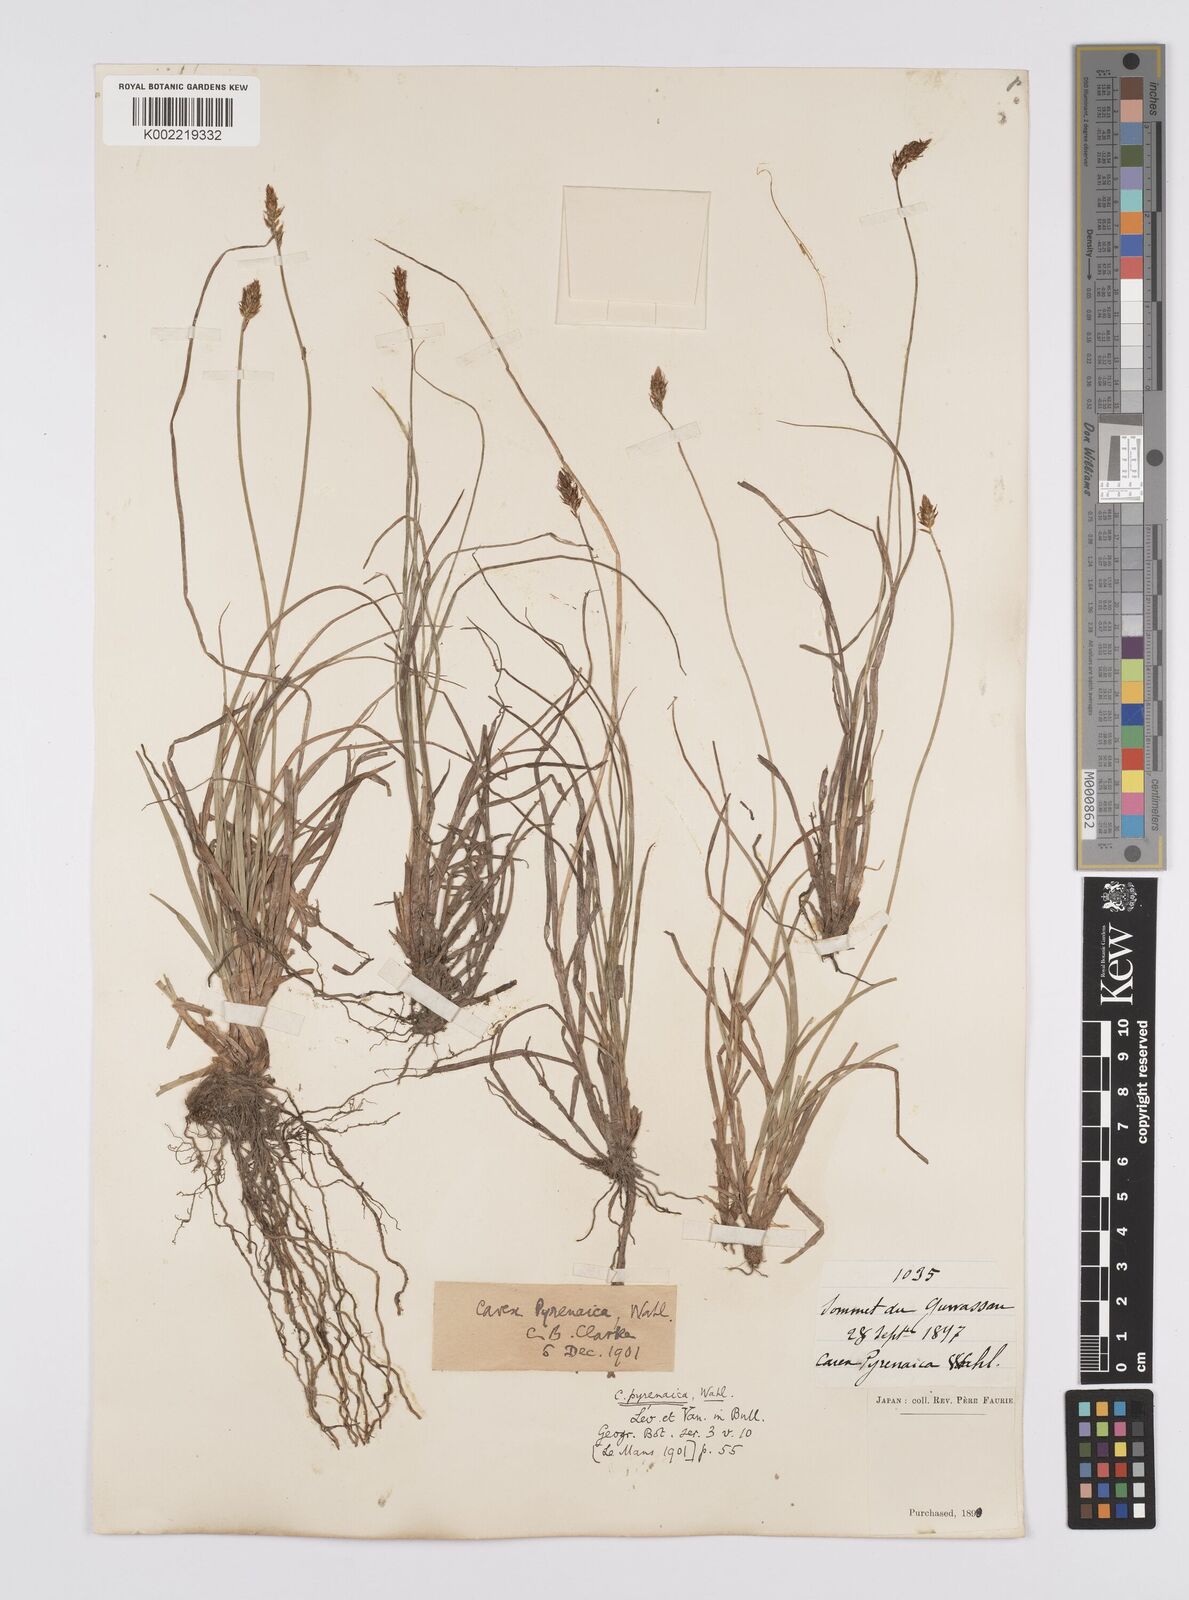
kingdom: Plantae
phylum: Tracheophyta
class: Liliopsida
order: Poales
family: Cyperaceae
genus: Carex
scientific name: Carex pyrenaica
